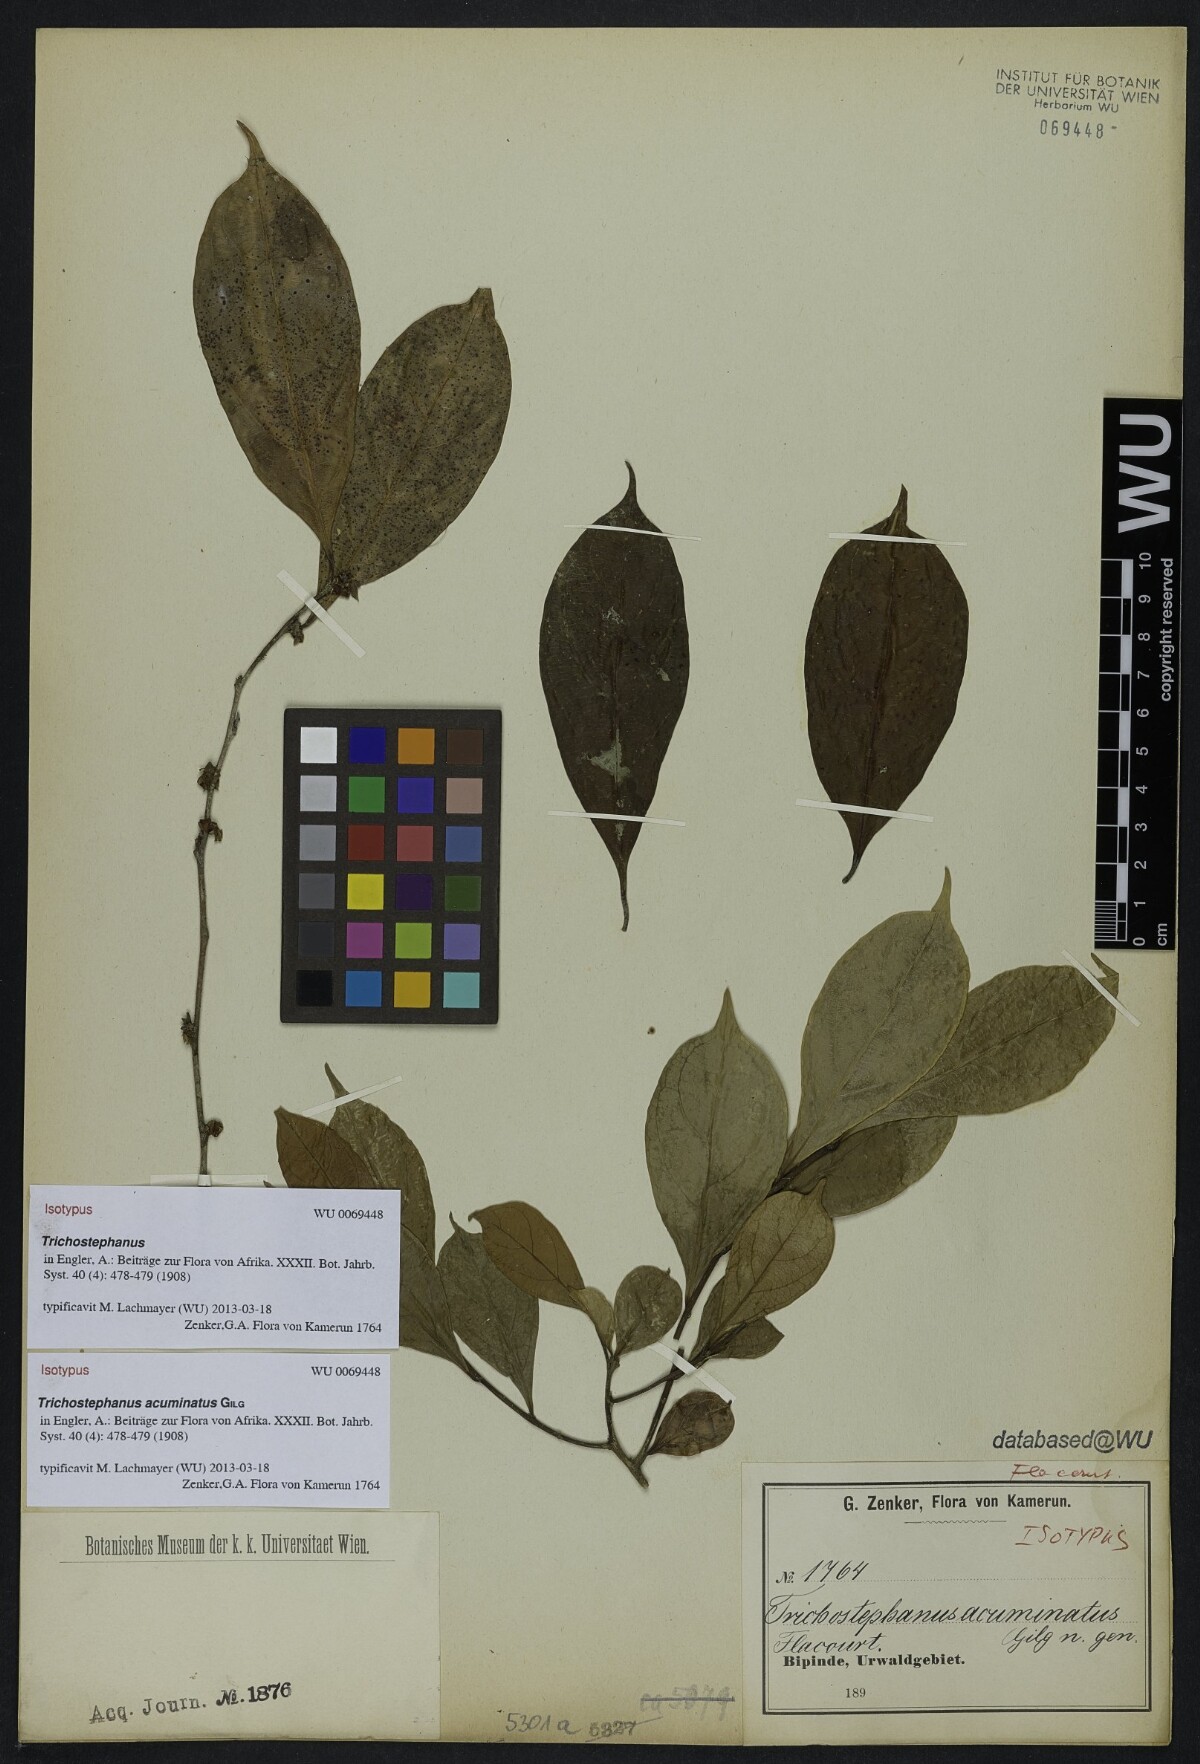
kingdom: Plantae
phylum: Tracheophyta
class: Magnoliopsida
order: Malpighiales
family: Salicaceae
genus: Trichostephanus
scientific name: Trichostephanus acuminatus
